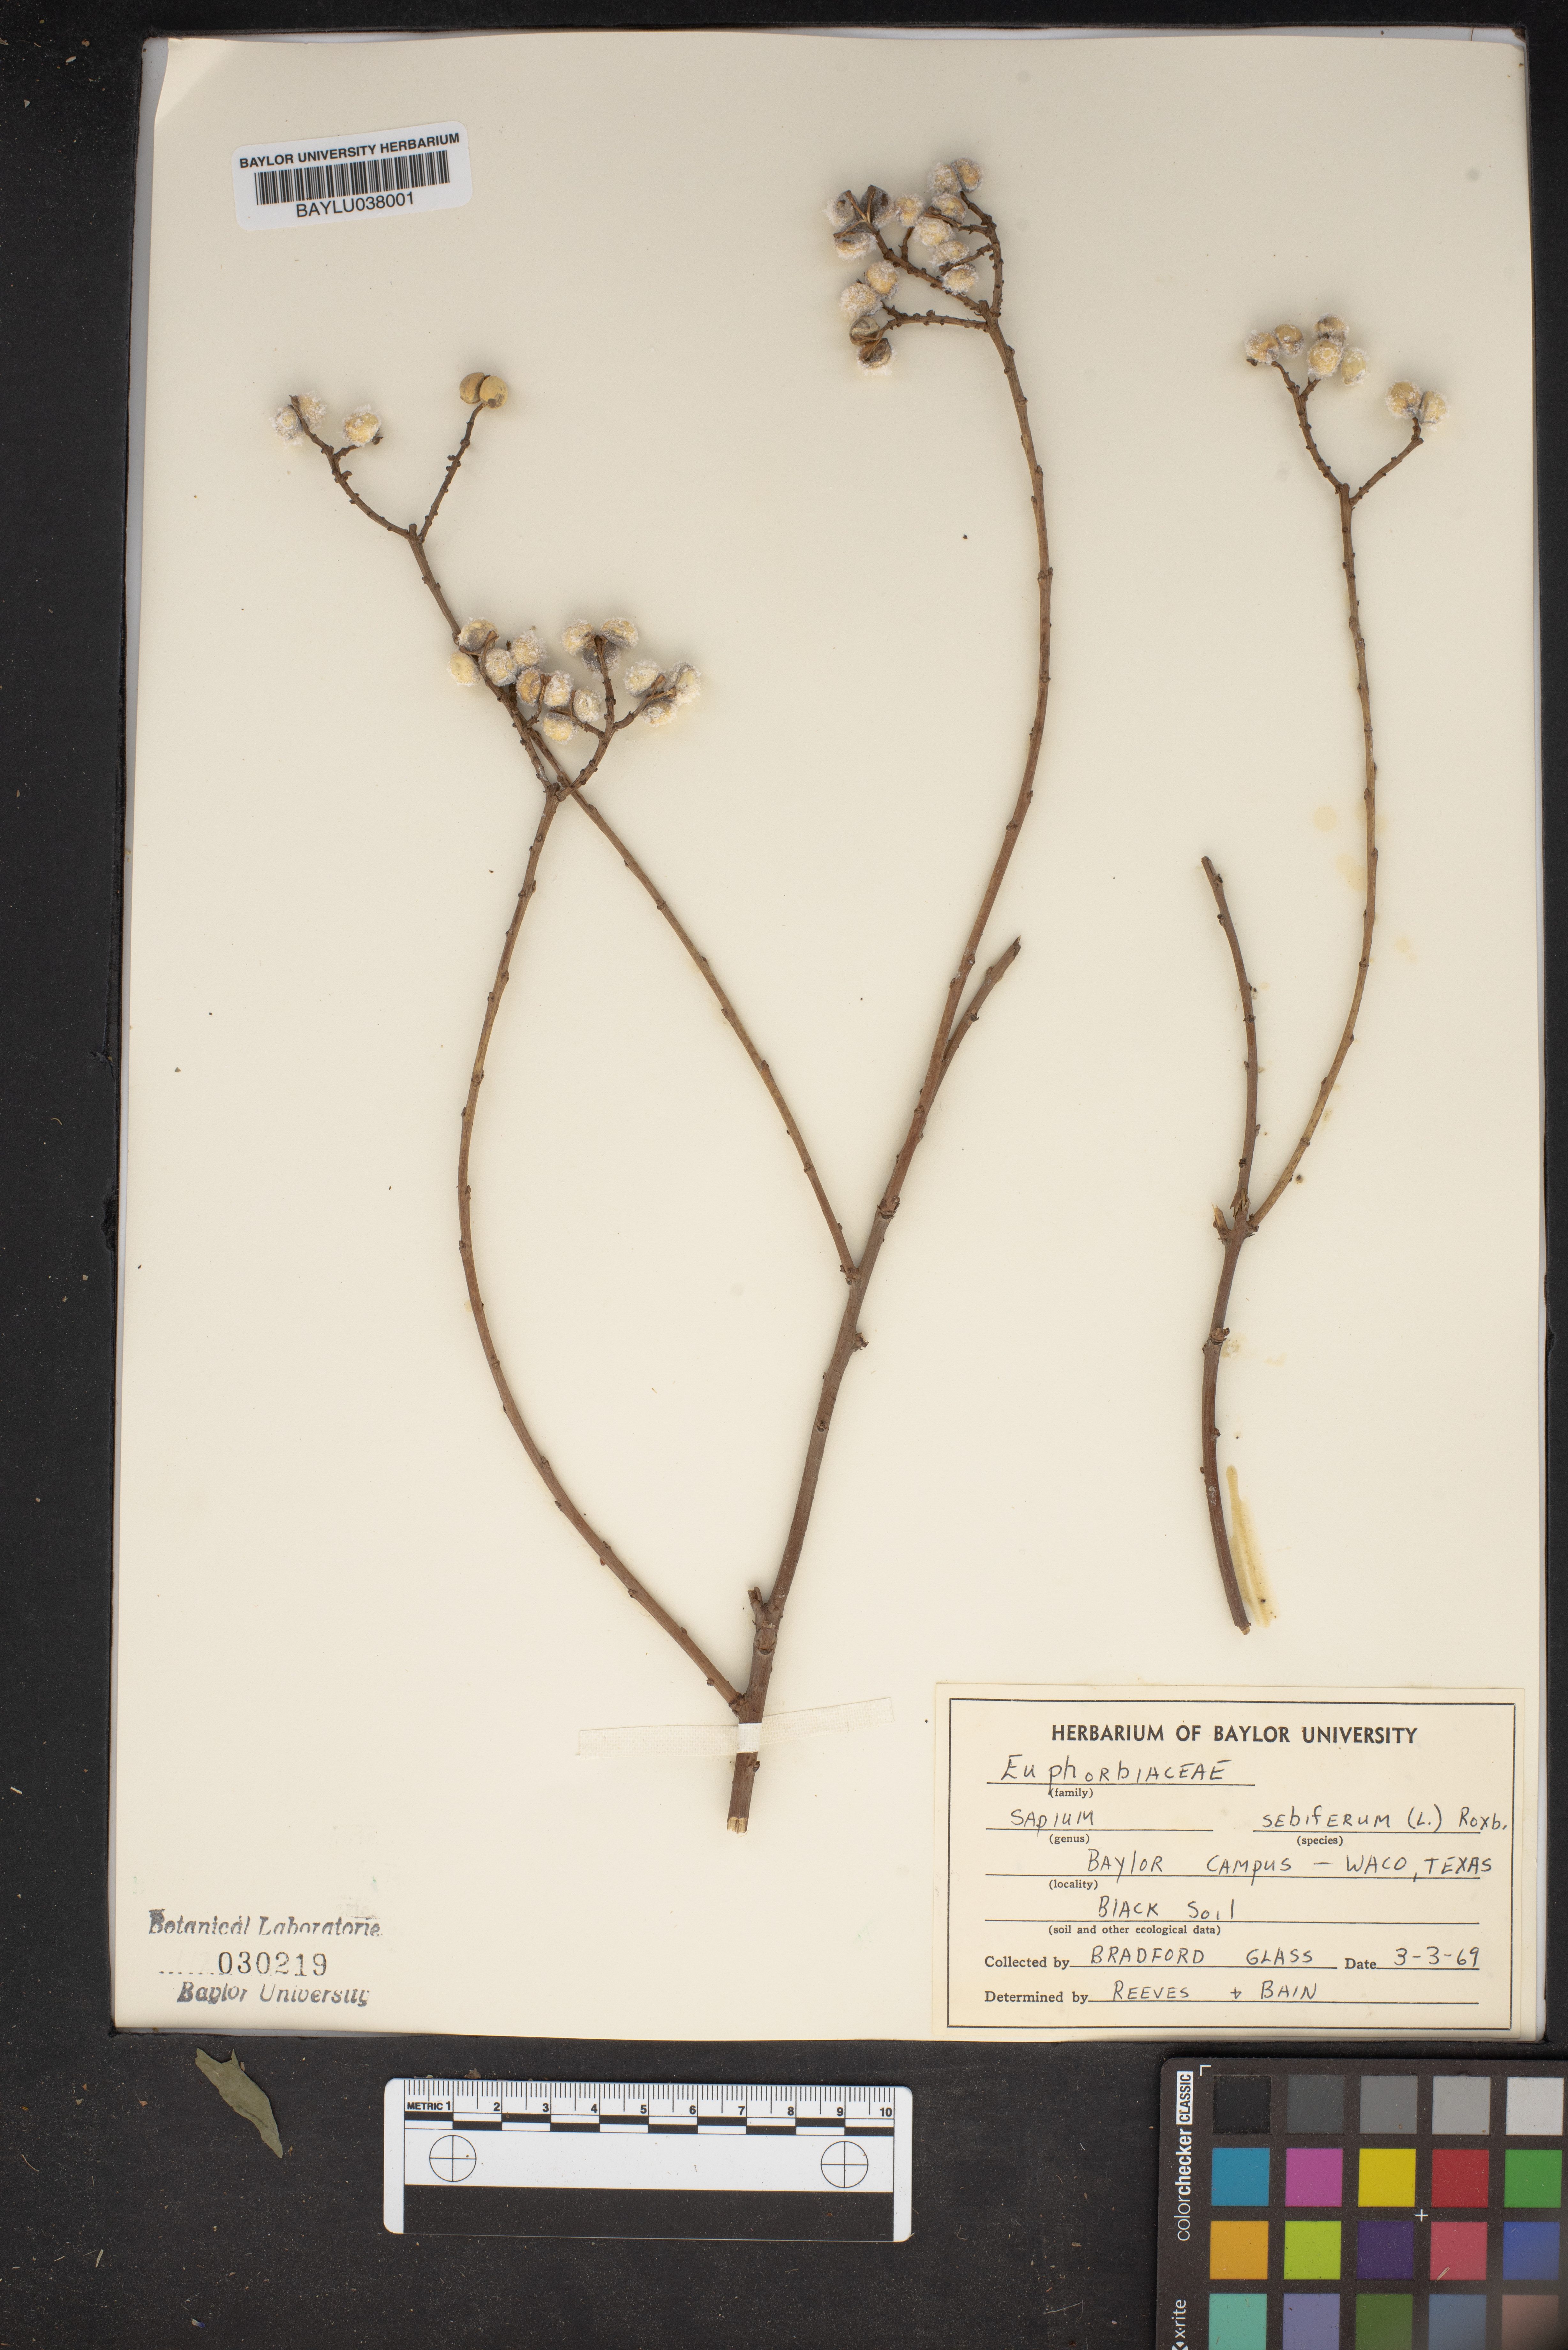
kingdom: Plantae
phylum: Tracheophyta
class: Magnoliopsida
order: Malpighiales
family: Euphorbiaceae
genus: Triadica
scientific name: Triadica sebifera
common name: Chinese tallow
